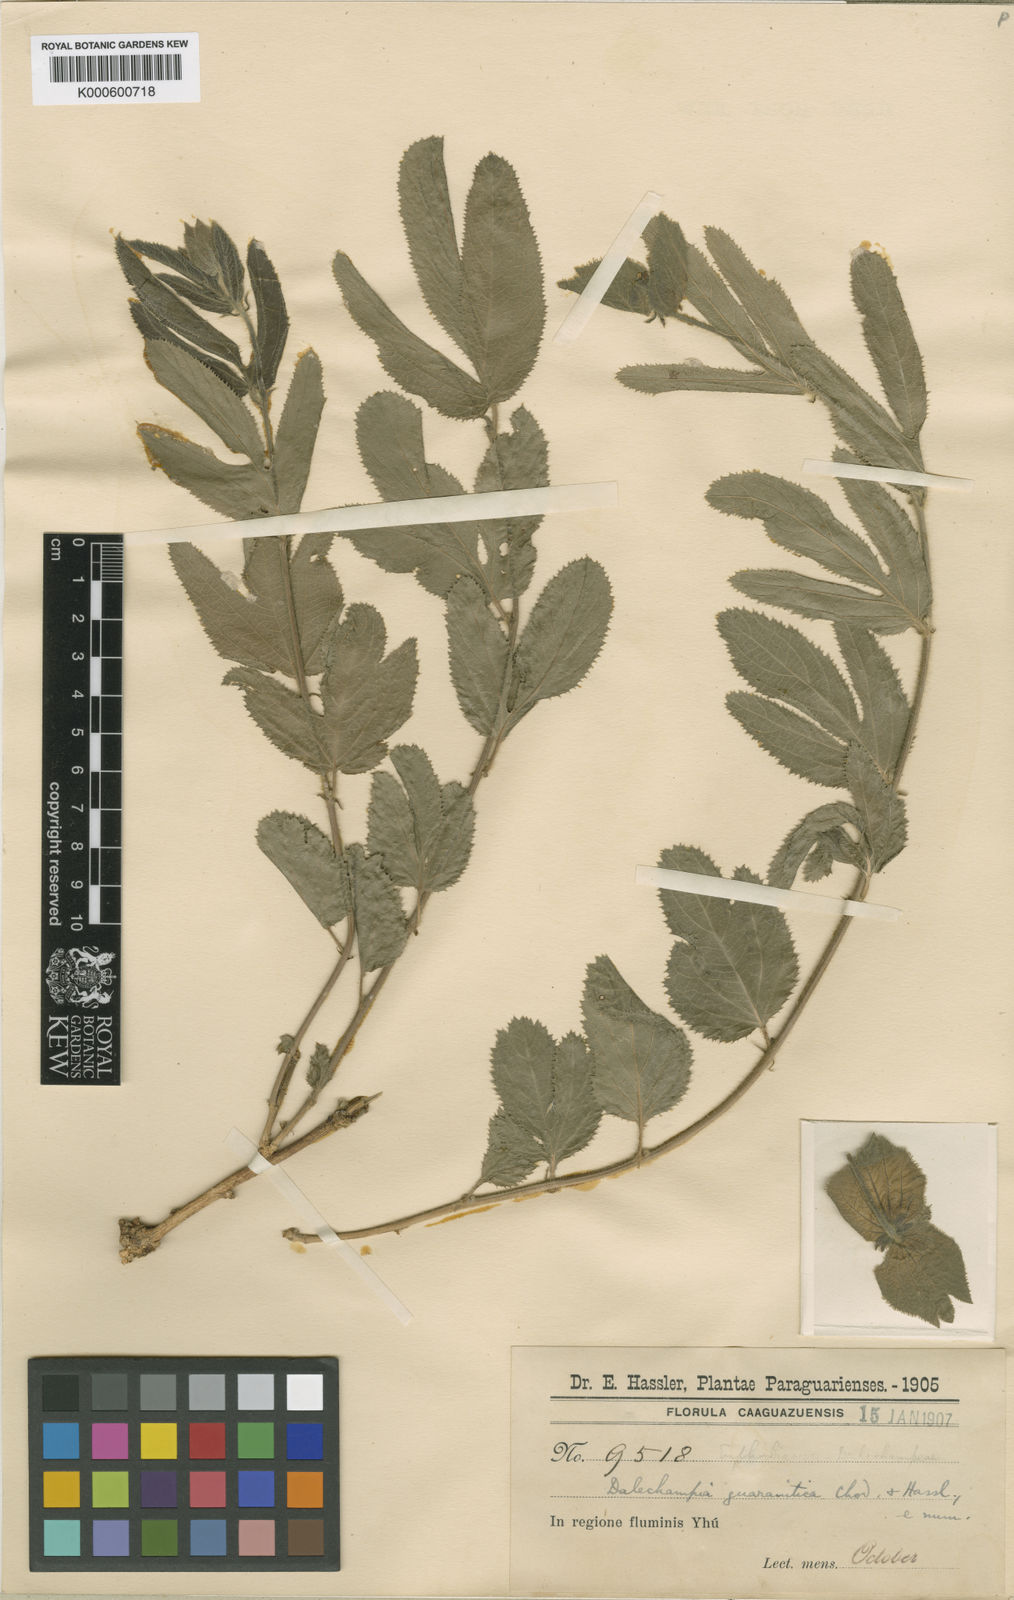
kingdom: Plantae
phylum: Tracheophyta
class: Magnoliopsida
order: Malpighiales
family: Euphorbiaceae
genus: Dalechampia
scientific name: Dalechampia guaranitica
